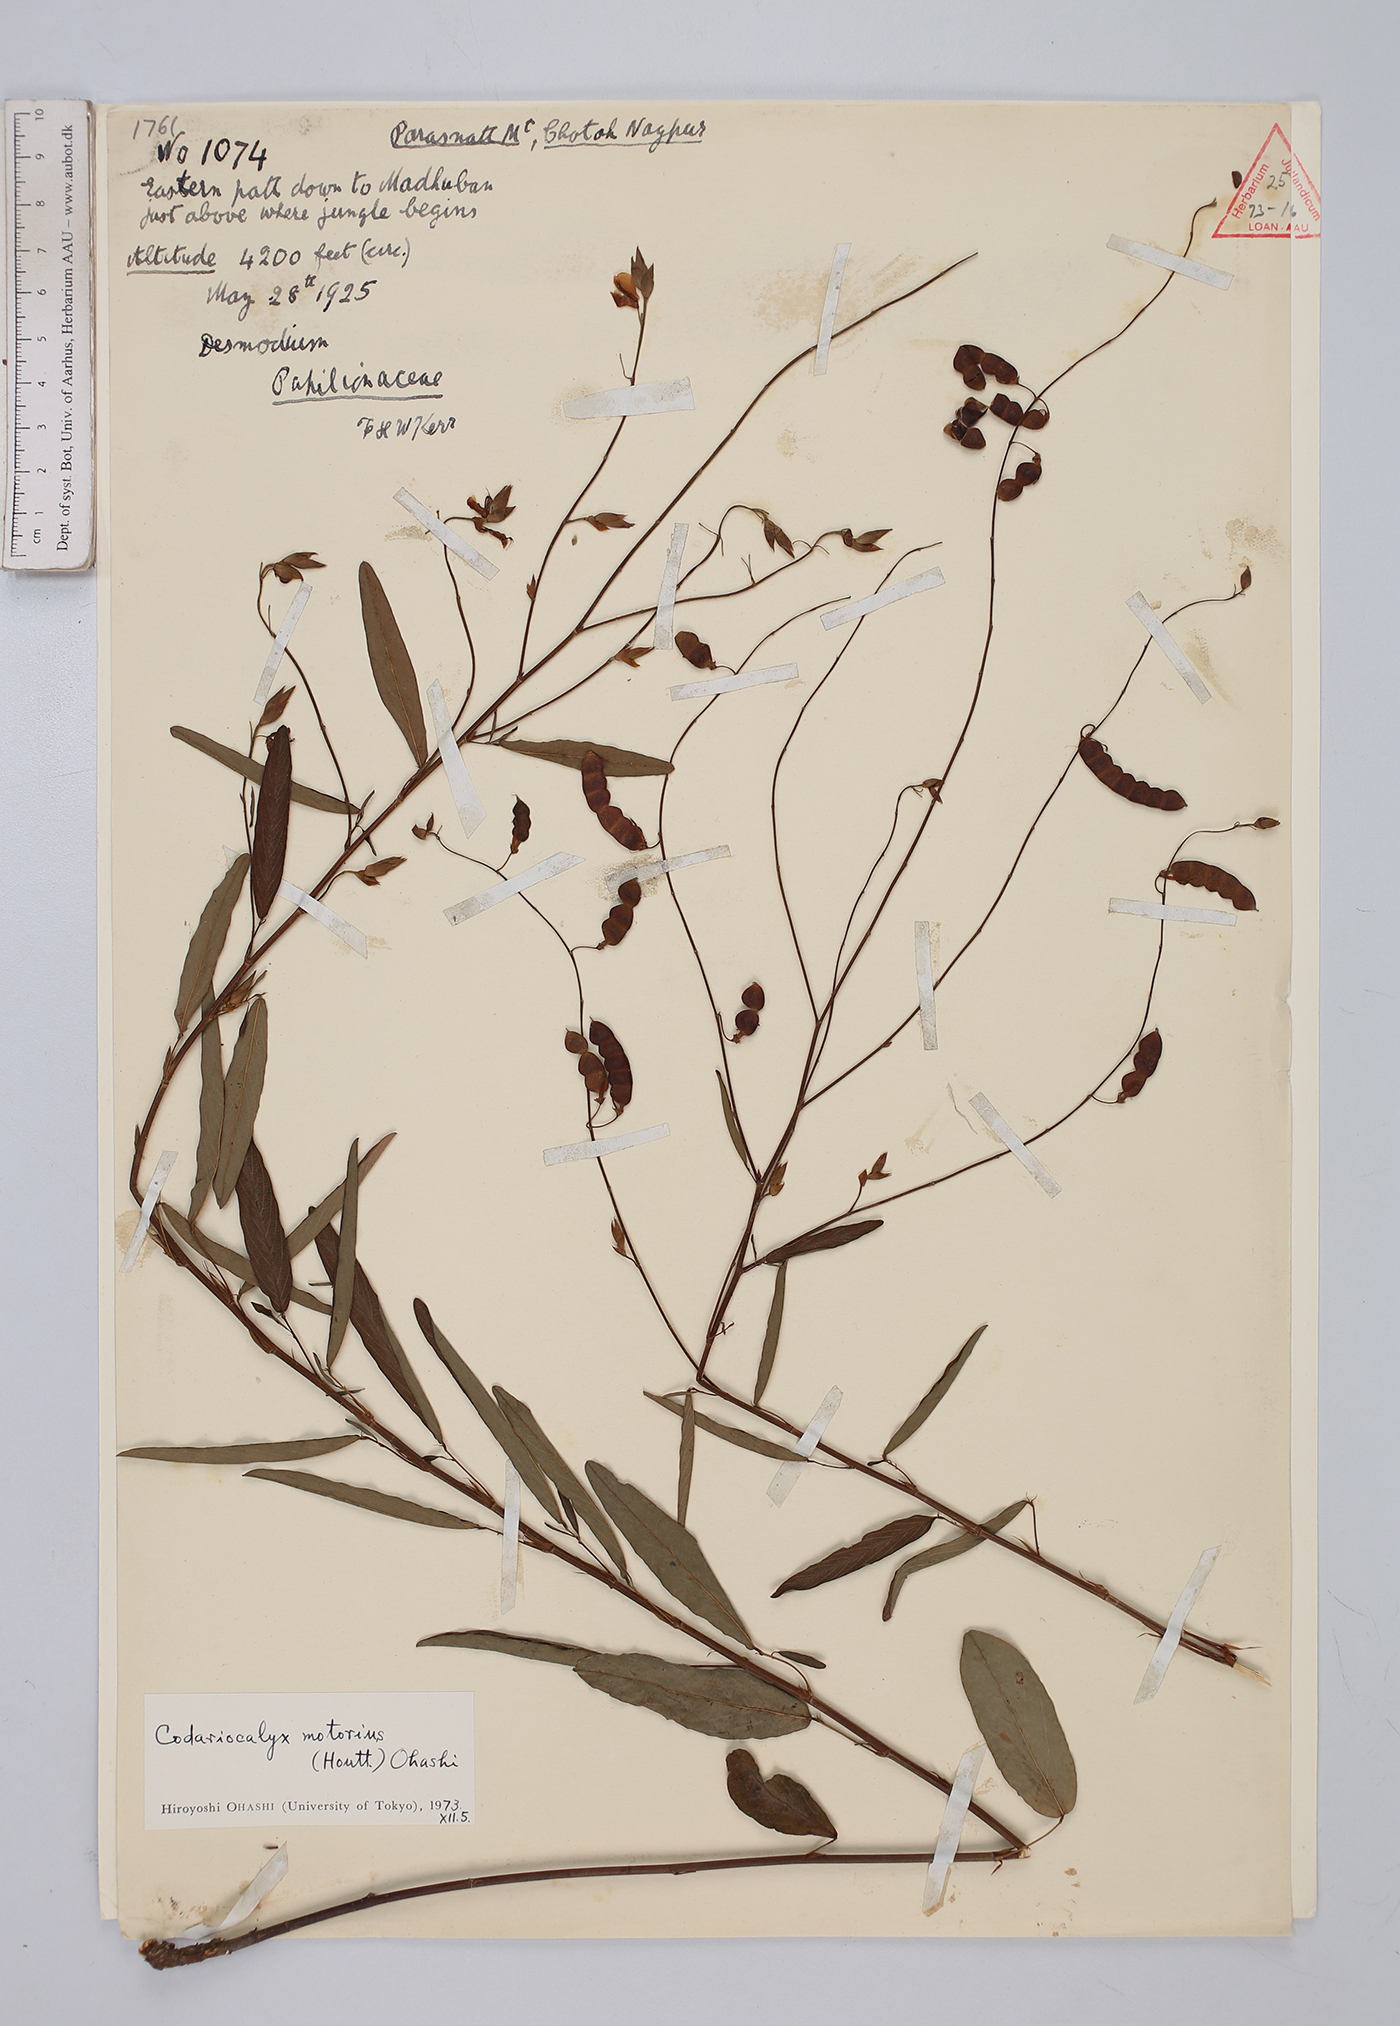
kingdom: Plantae
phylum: Tracheophyta
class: Magnoliopsida
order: Fabales
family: Fabaceae
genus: Codariocalyx
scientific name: Codariocalyx motorius
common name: Telegraph-plant
